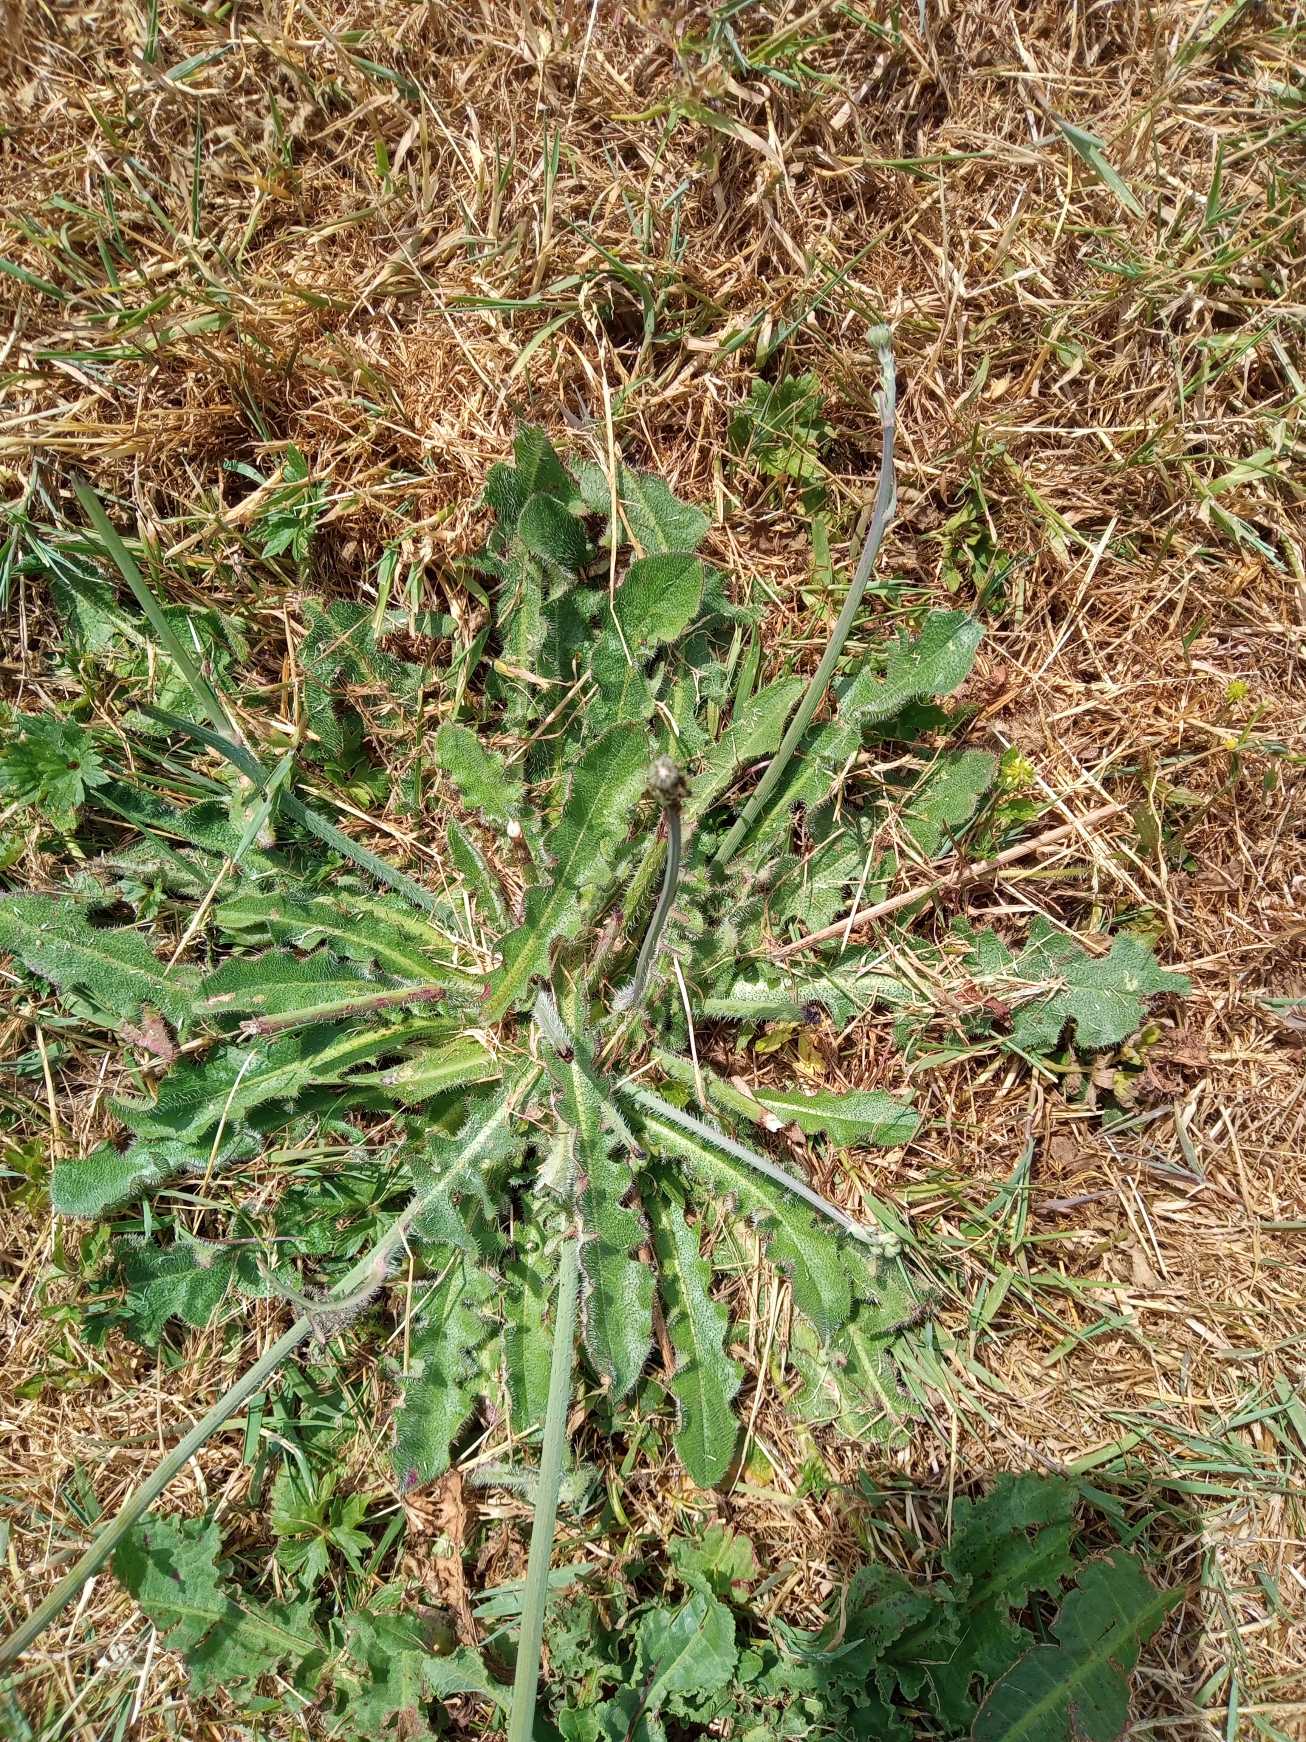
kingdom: Plantae
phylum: Tracheophyta
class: Magnoliopsida
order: Asterales
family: Asteraceae
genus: Hypochaeris
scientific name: Hypochaeris radicata
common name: Almindelig kongepen
